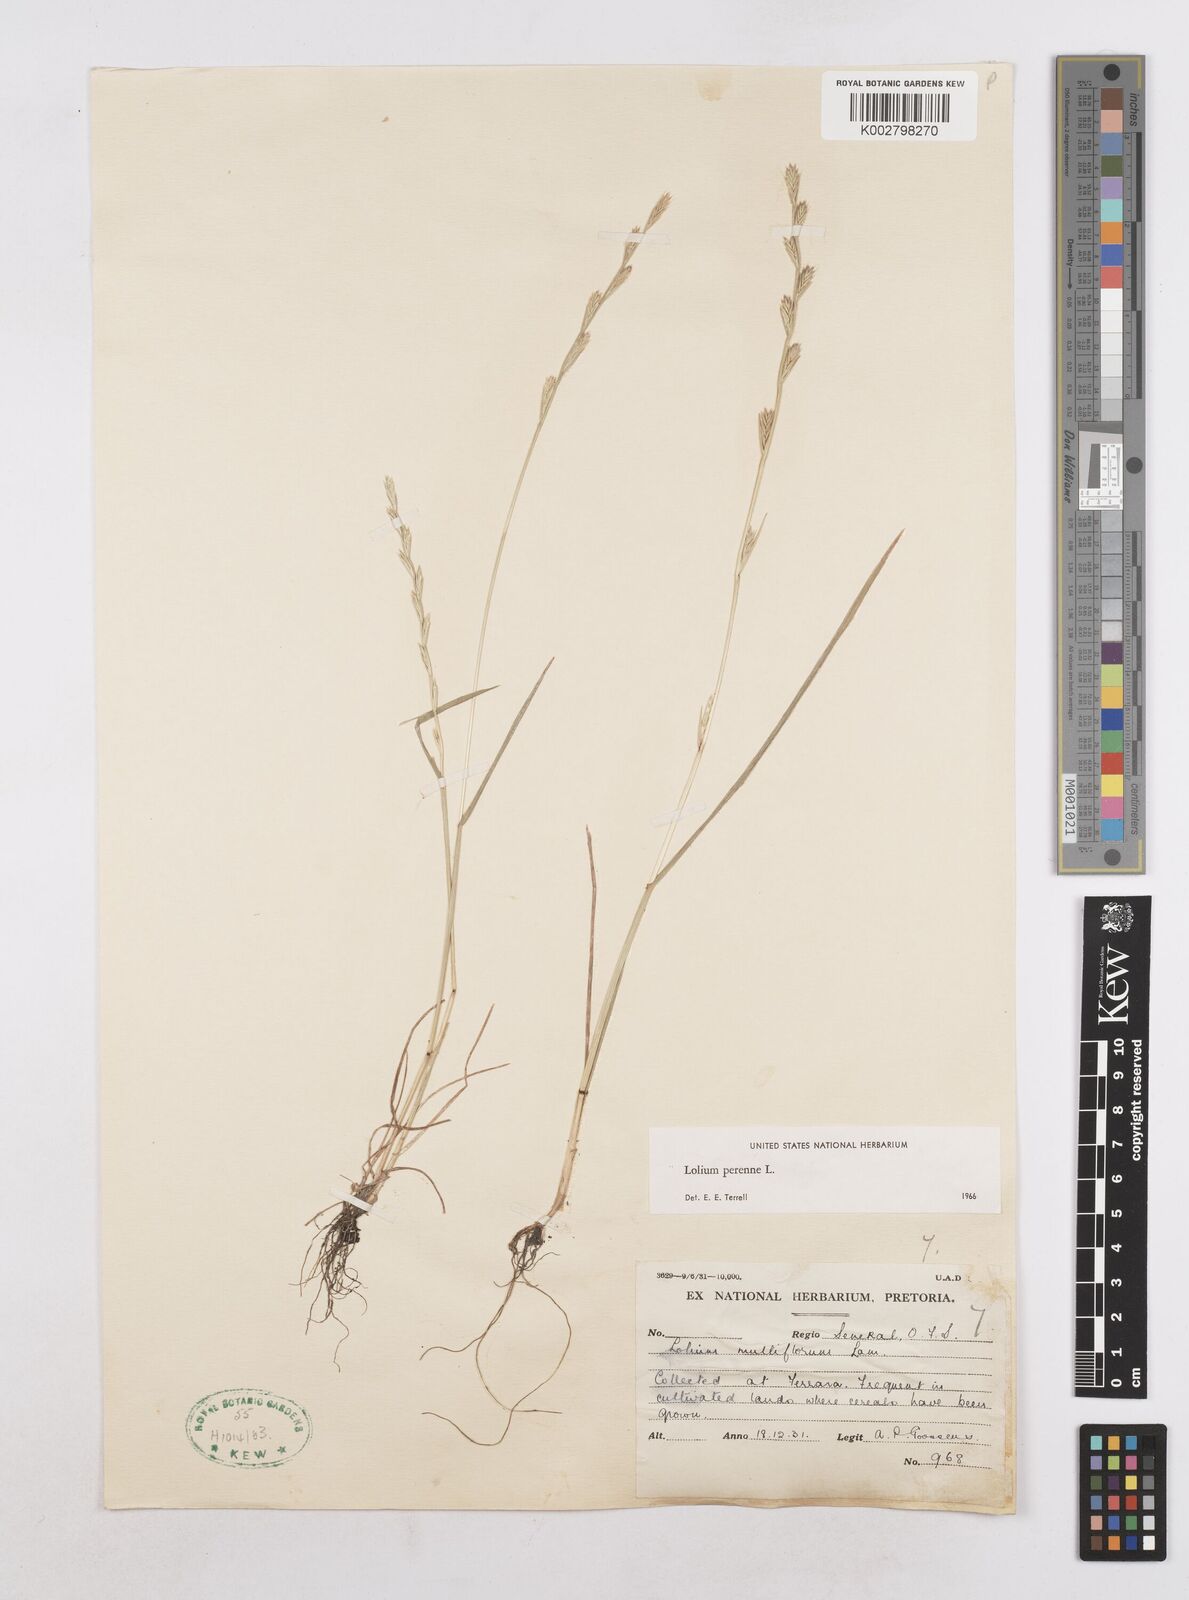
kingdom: Plantae
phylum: Tracheophyta
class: Liliopsida
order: Poales
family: Poaceae
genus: Lolium
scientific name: Lolium perenne
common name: Perennial ryegrass
